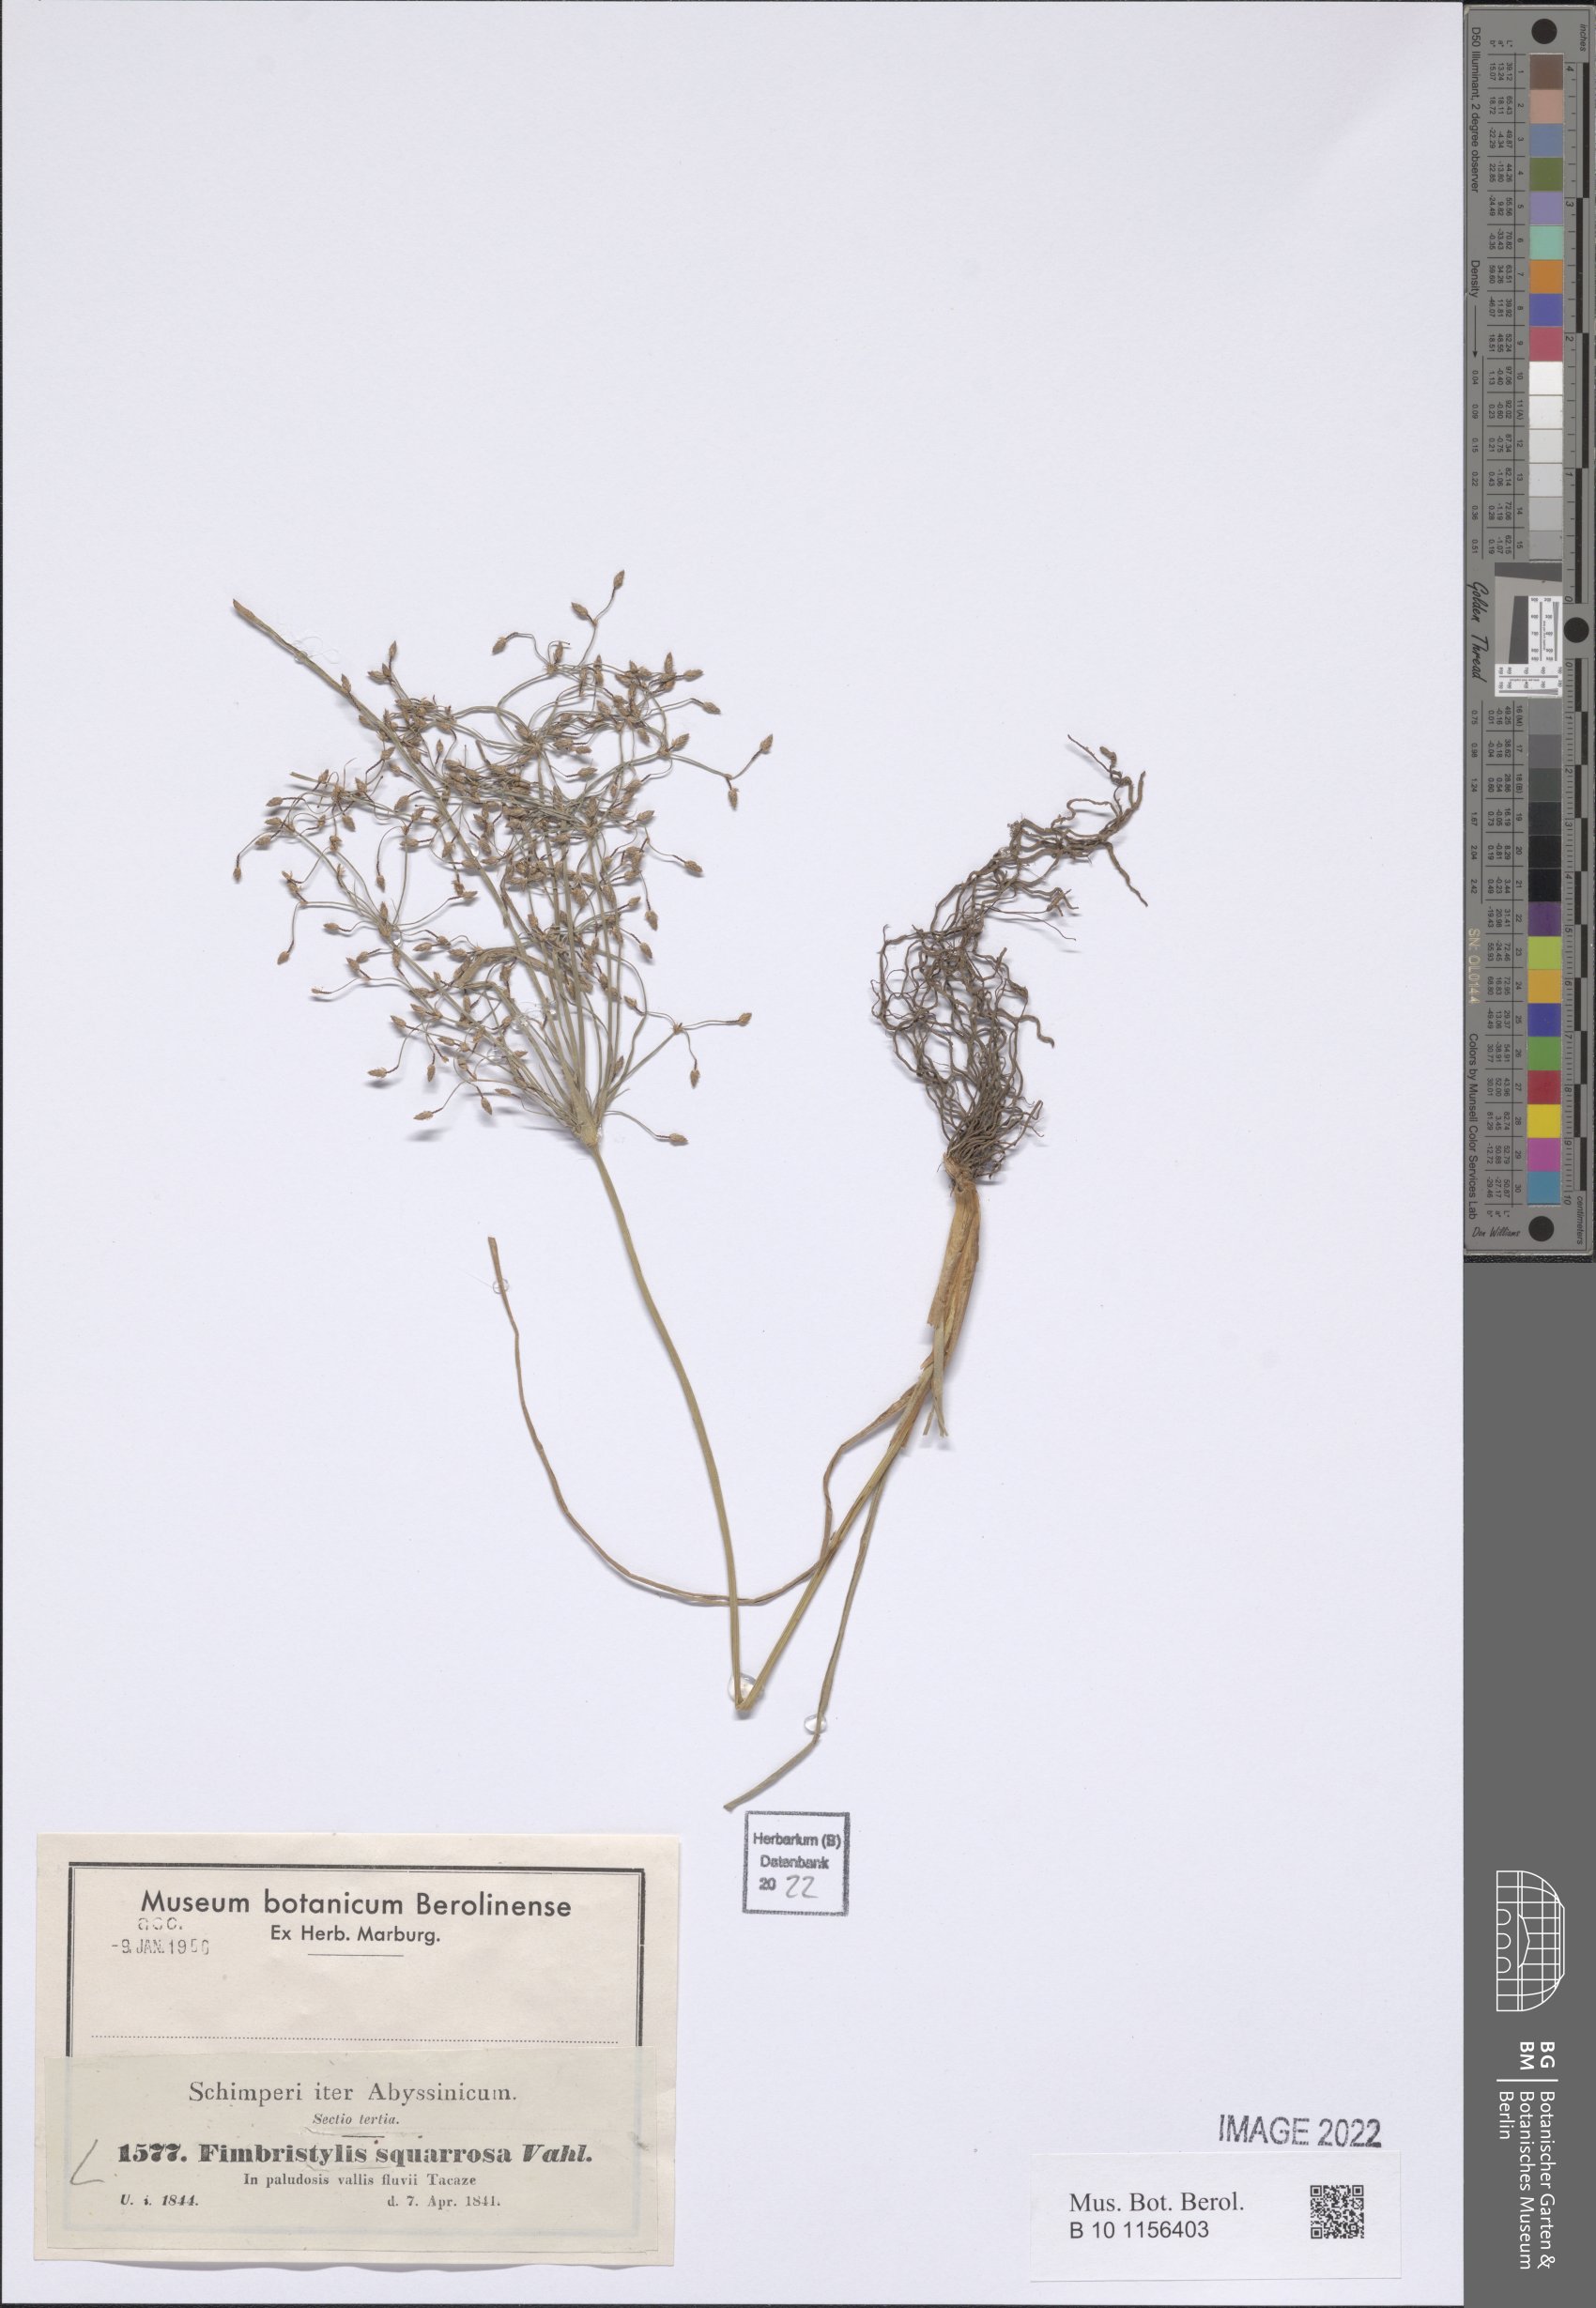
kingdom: Plantae
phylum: Tracheophyta
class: Liliopsida
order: Poales
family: Cyperaceae
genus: Fimbristylis
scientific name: Fimbristylis squarrosa
